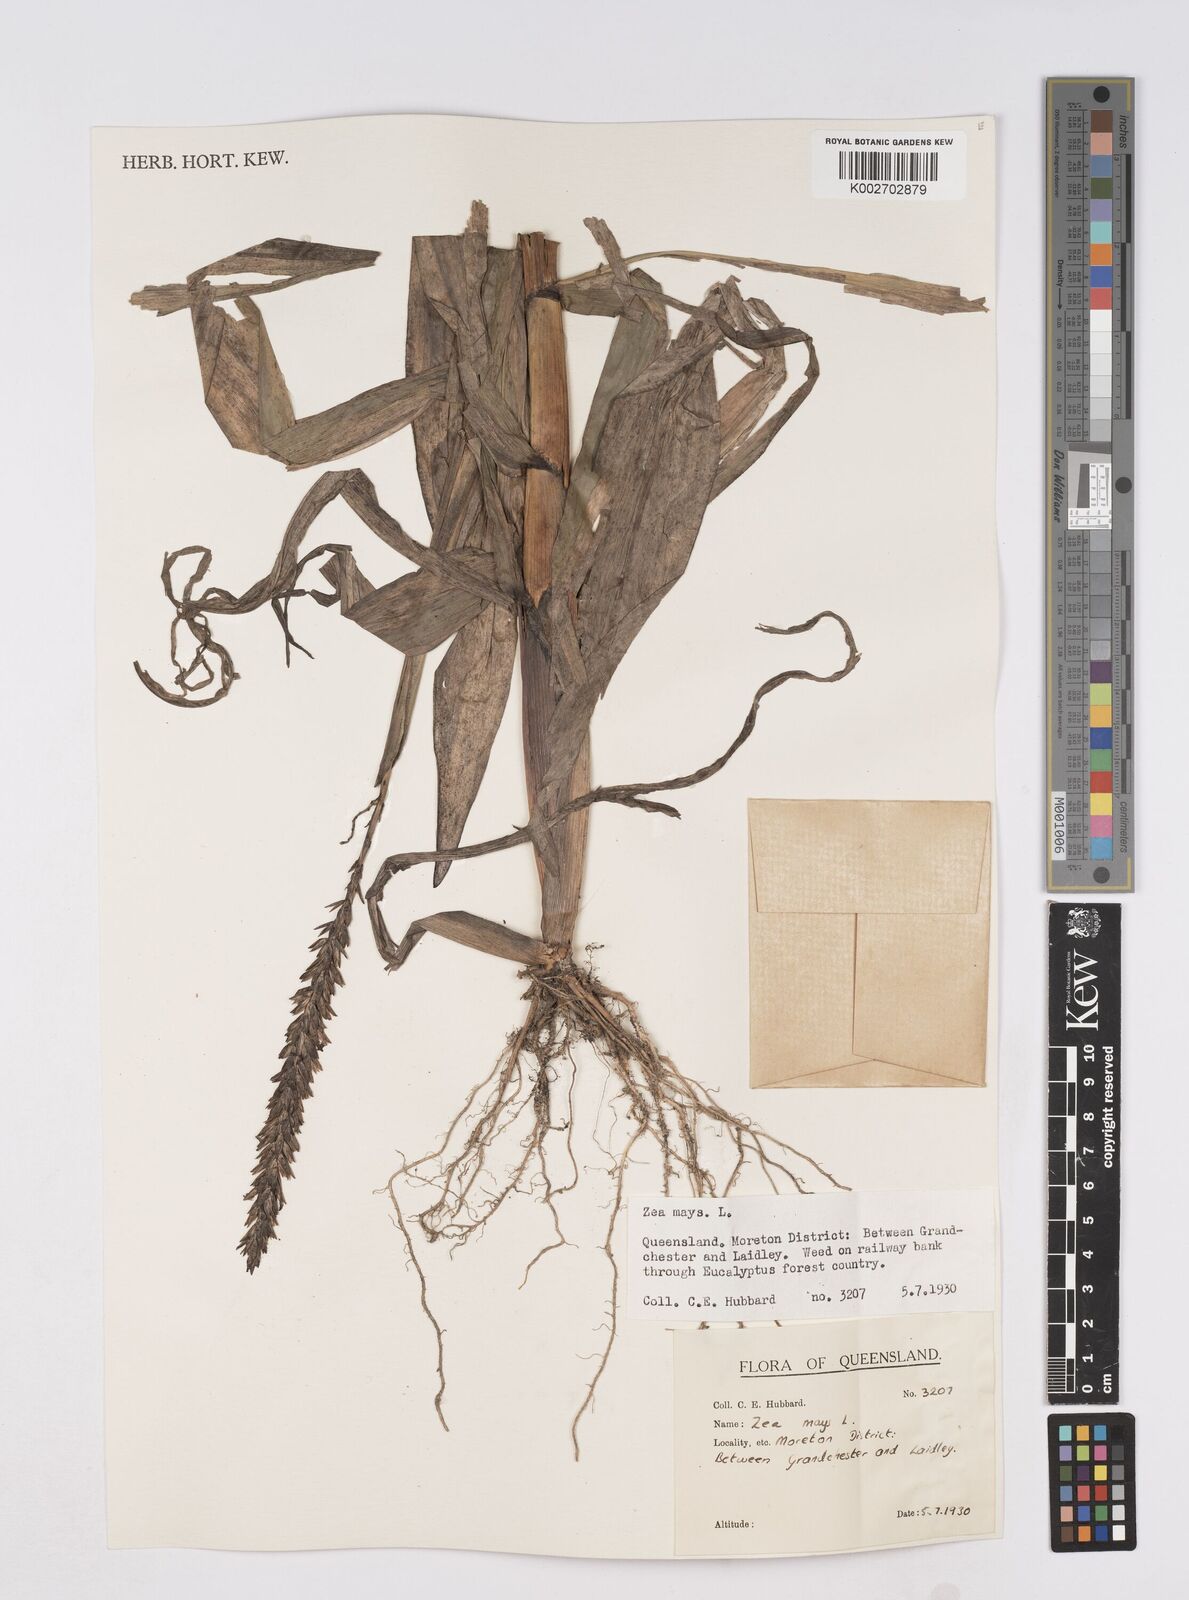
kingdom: Plantae
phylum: Tracheophyta
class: Liliopsida
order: Poales
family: Poaceae
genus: Zea
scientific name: Zea mays
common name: Maize
